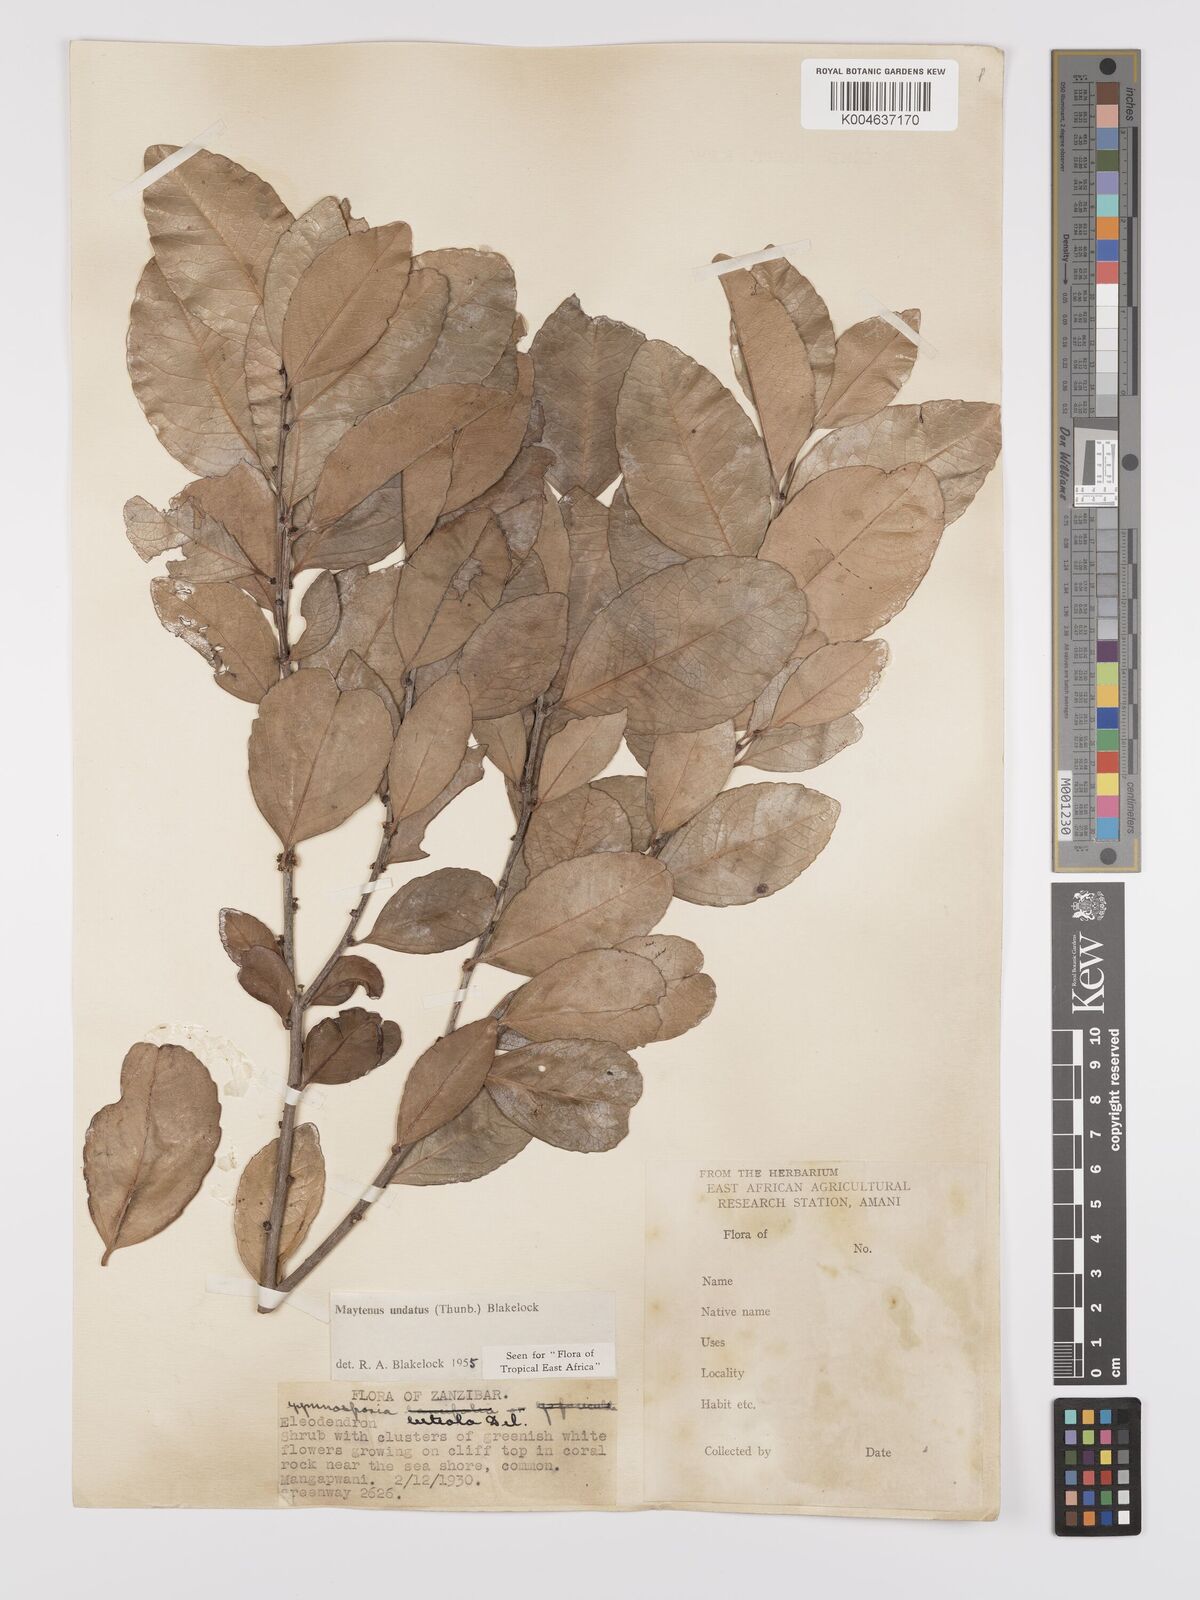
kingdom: Plantae
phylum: Tracheophyta
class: Magnoliopsida
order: Celastrales
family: Celastraceae
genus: Gymnosporia
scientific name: Gymnosporia undata
